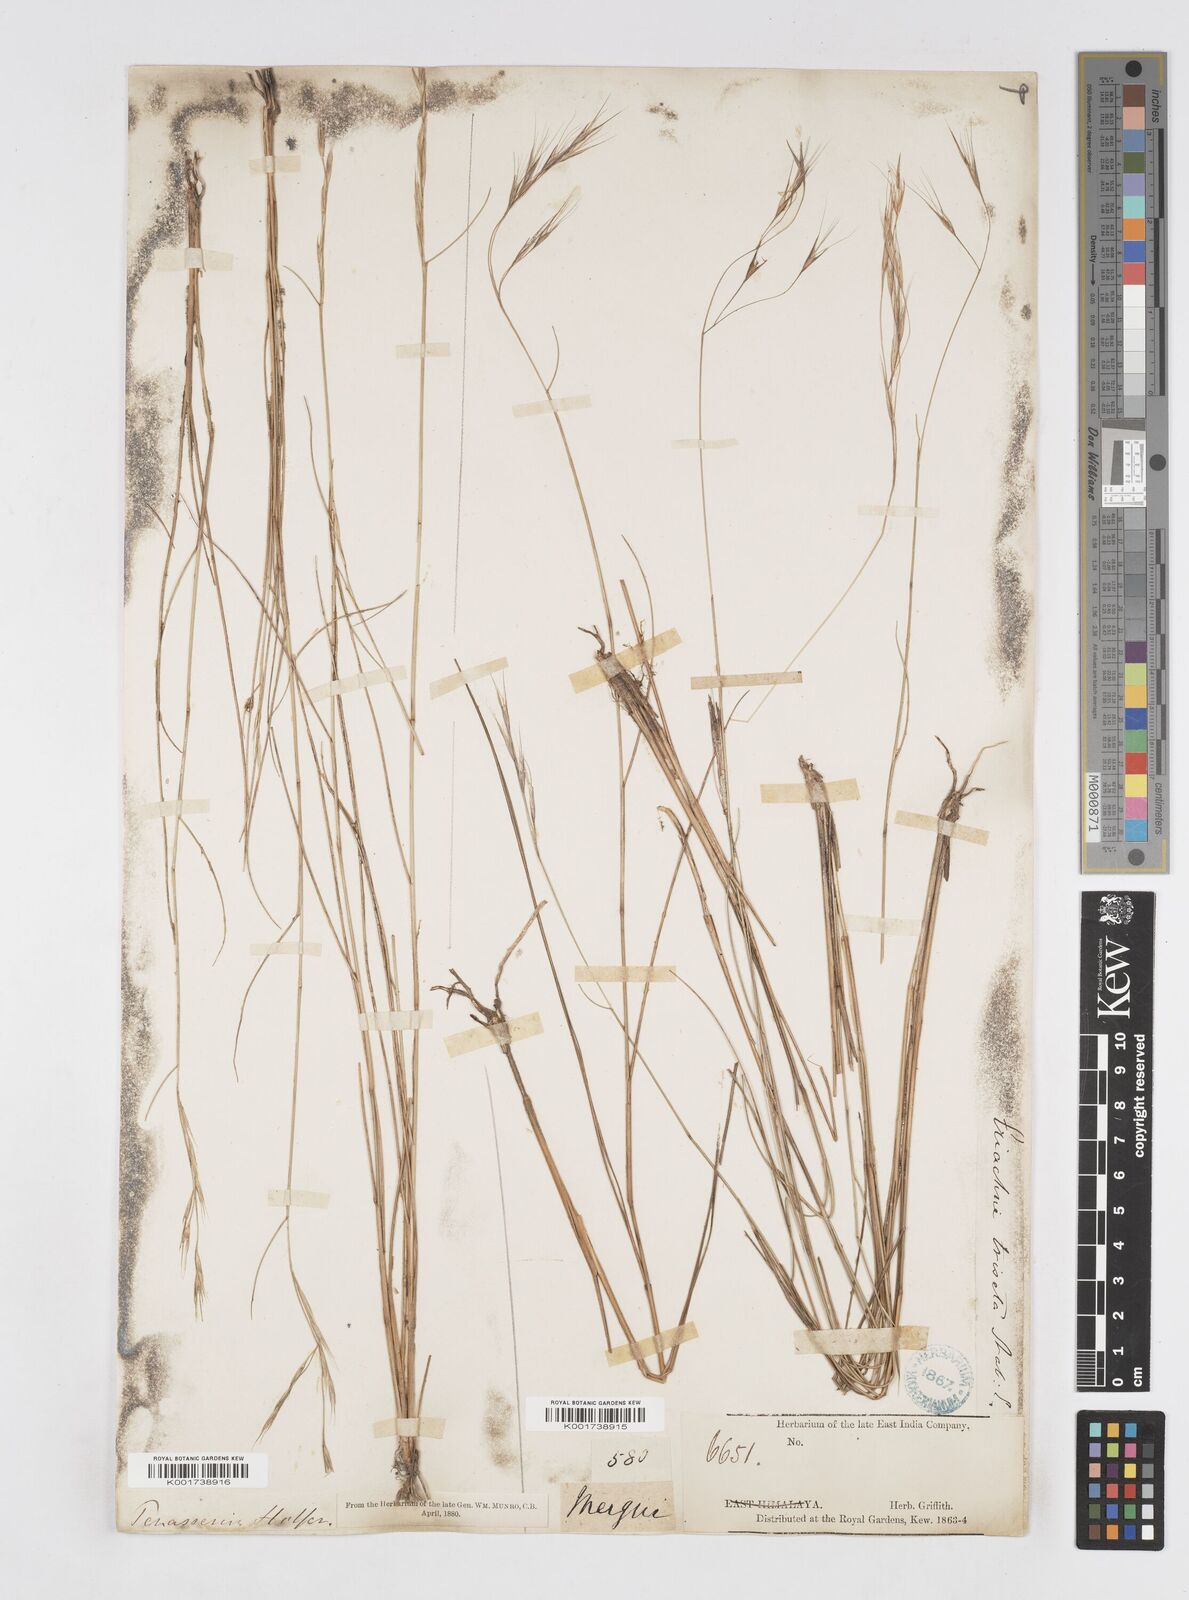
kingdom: Plantae
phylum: Tracheophyta
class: Liliopsida
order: Poales
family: Poaceae
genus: Eriachne
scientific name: Eriachne triseta
